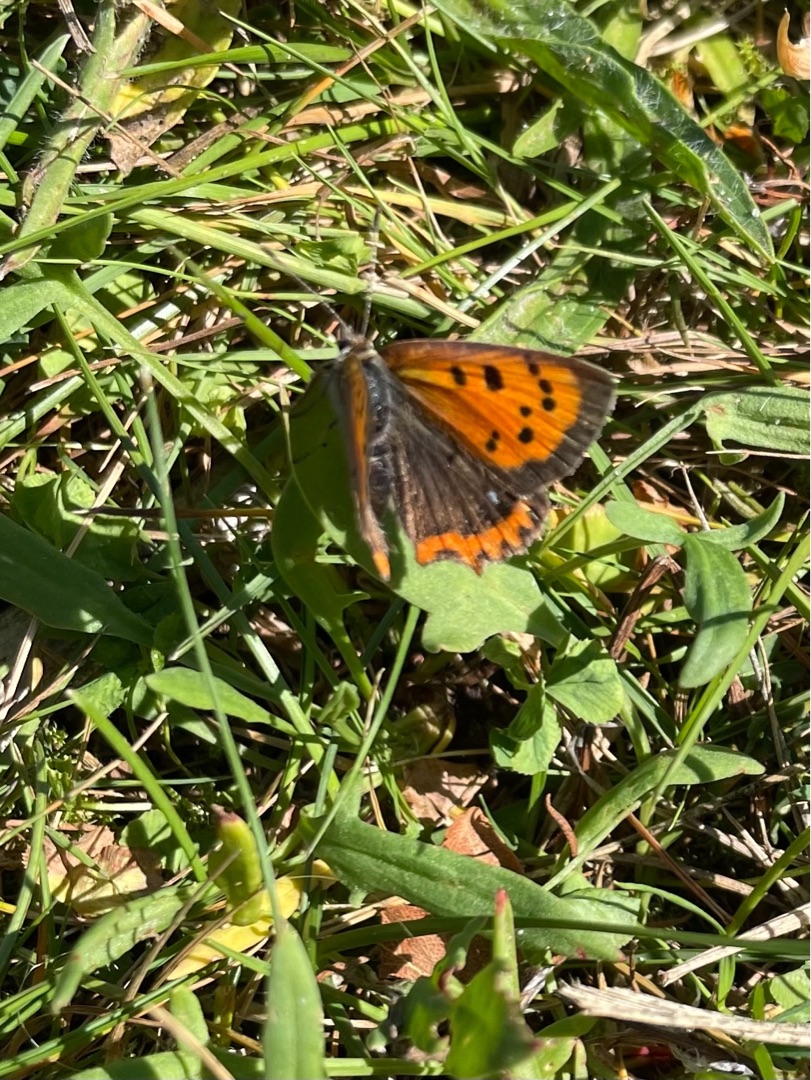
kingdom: Animalia
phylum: Arthropoda
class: Insecta
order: Lepidoptera
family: Lycaenidae
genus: Lycaena
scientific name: Lycaena phlaeas
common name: Lille ildfugl
